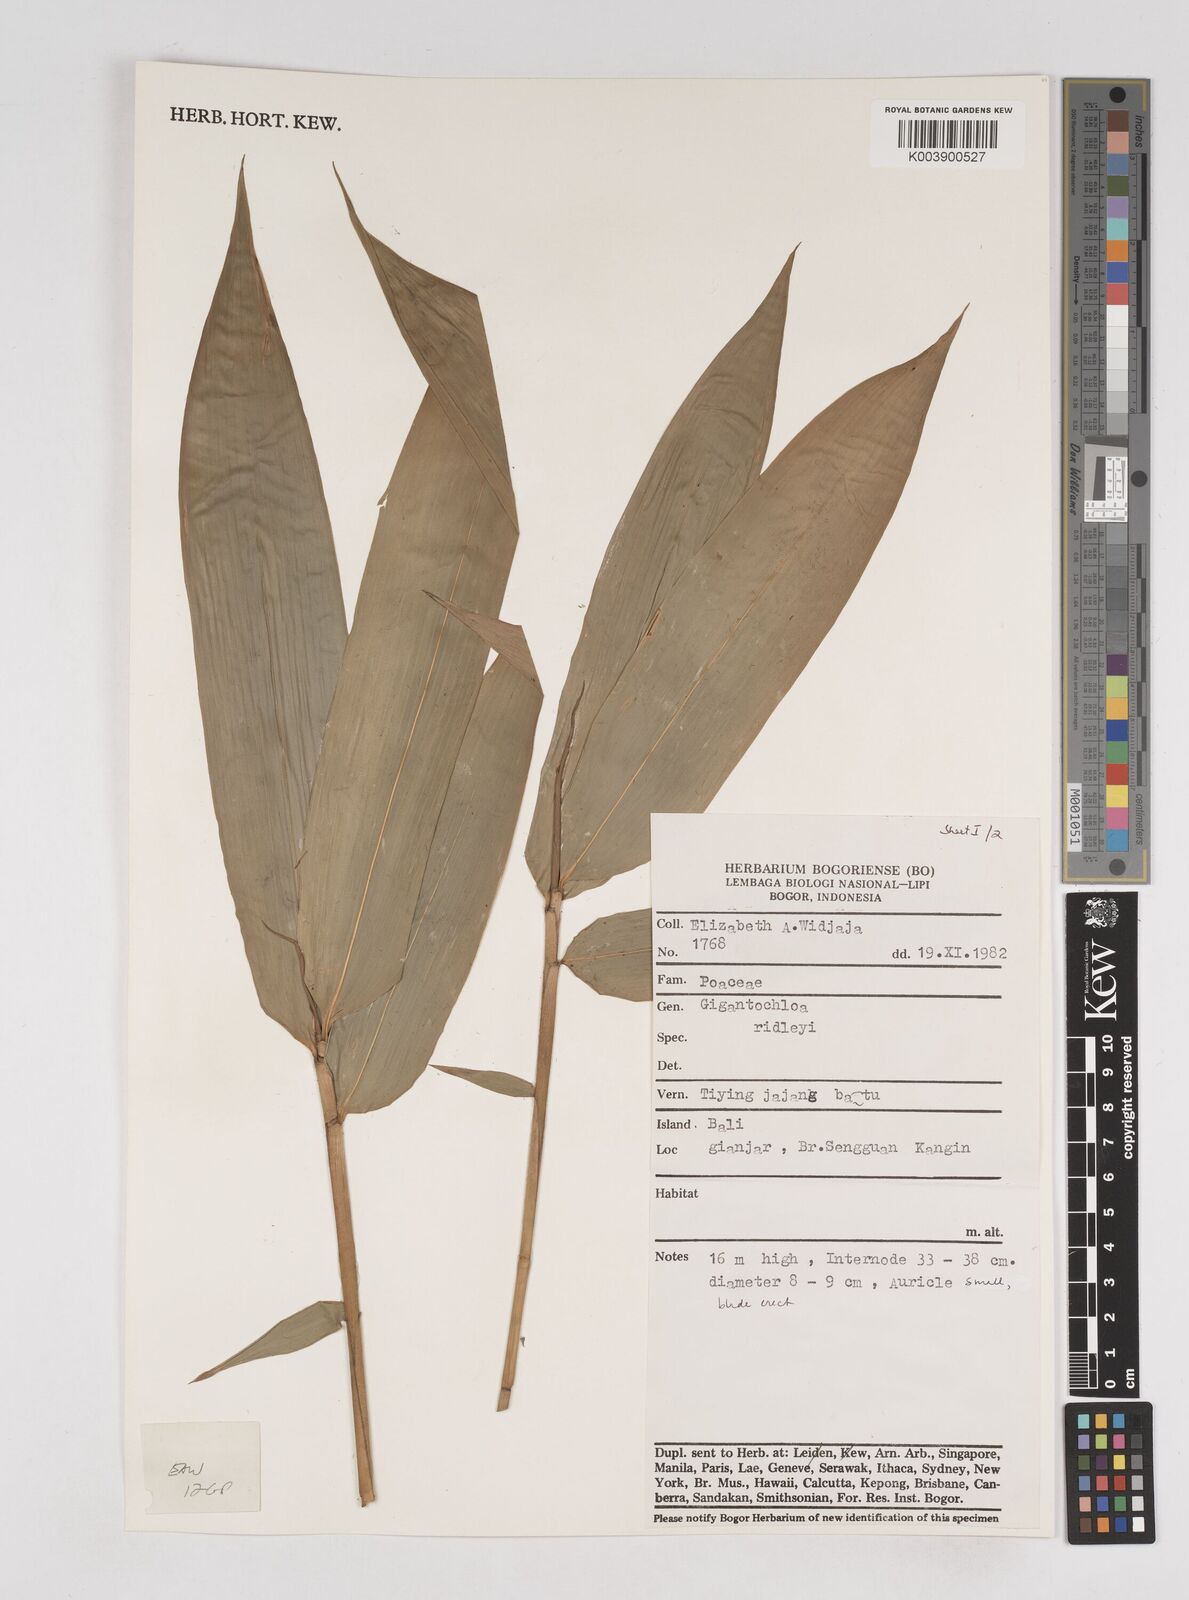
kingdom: Plantae
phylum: Tracheophyta
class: Liliopsida
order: Poales
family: Poaceae
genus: Gigantochloa
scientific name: Gigantochloa ridleyi
